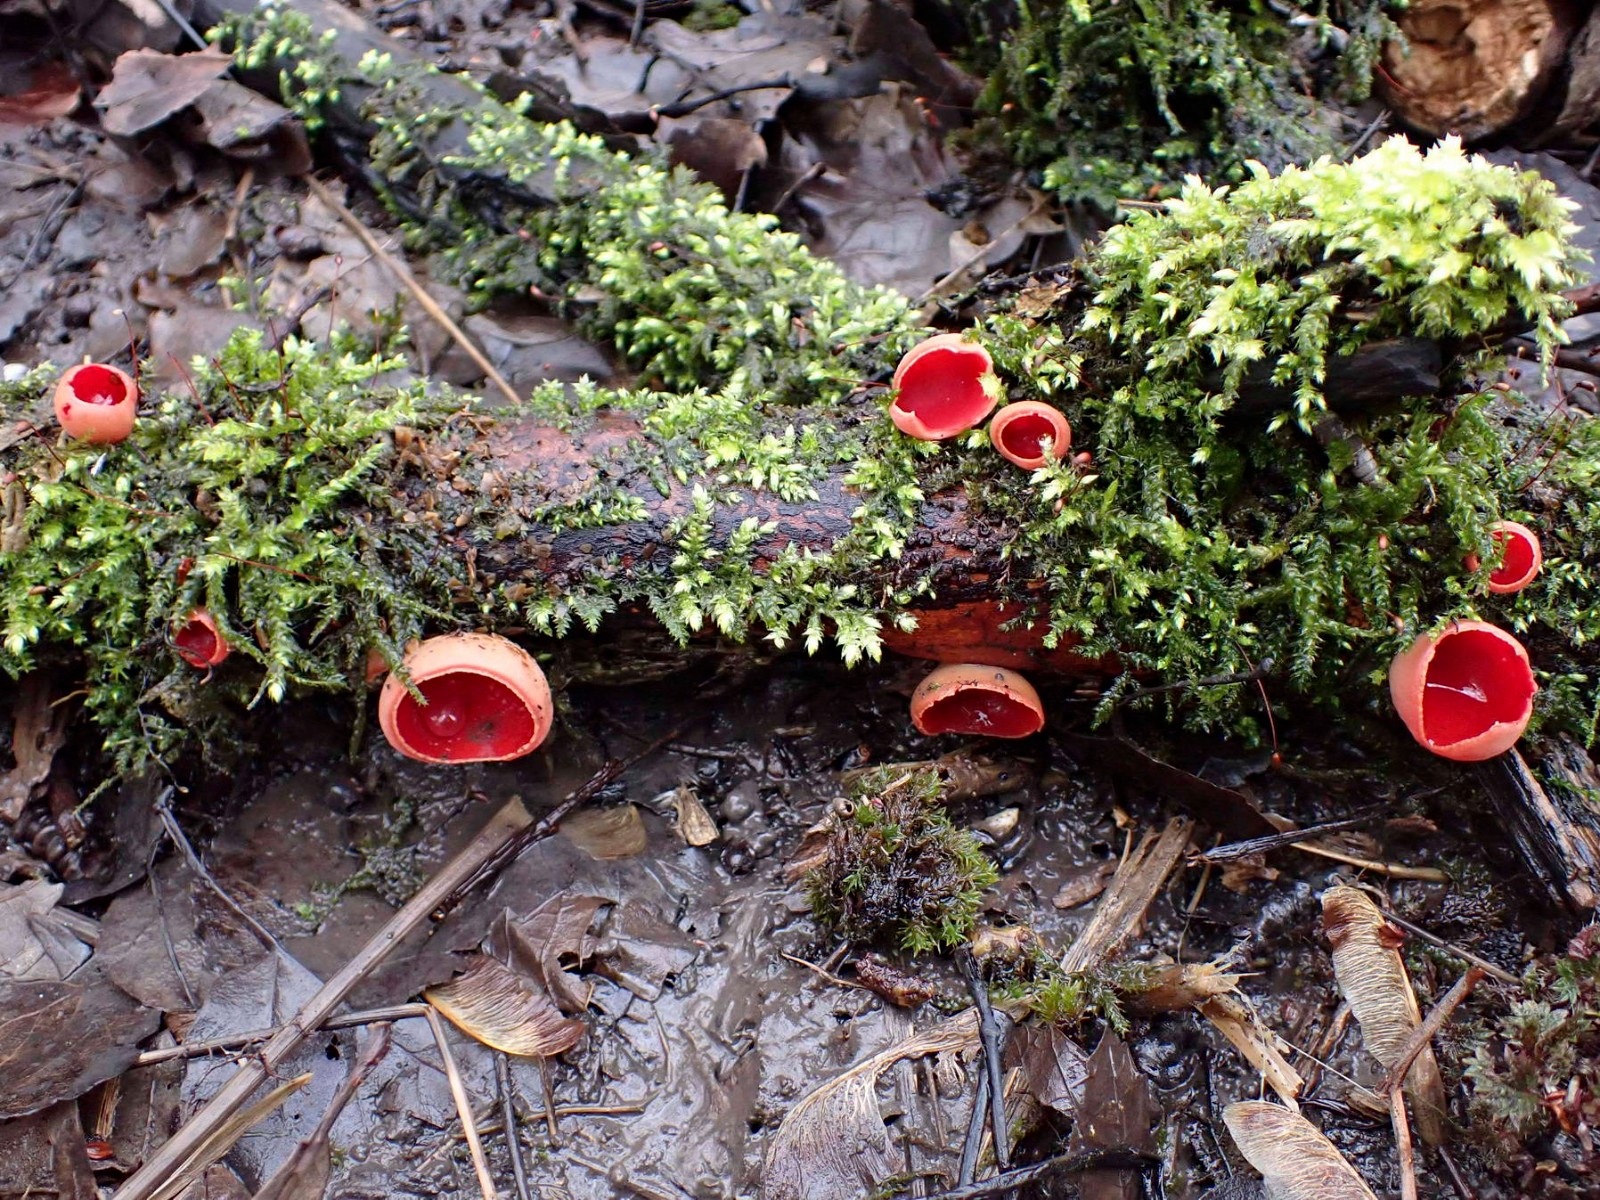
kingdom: Fungi
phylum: Ascomycota
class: Pezizomycetes
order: Pezizales
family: Sarcoscyphaceae
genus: Sarcoscypha
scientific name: Sarcoscypha austriaca
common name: krølhåret pragtbæger
